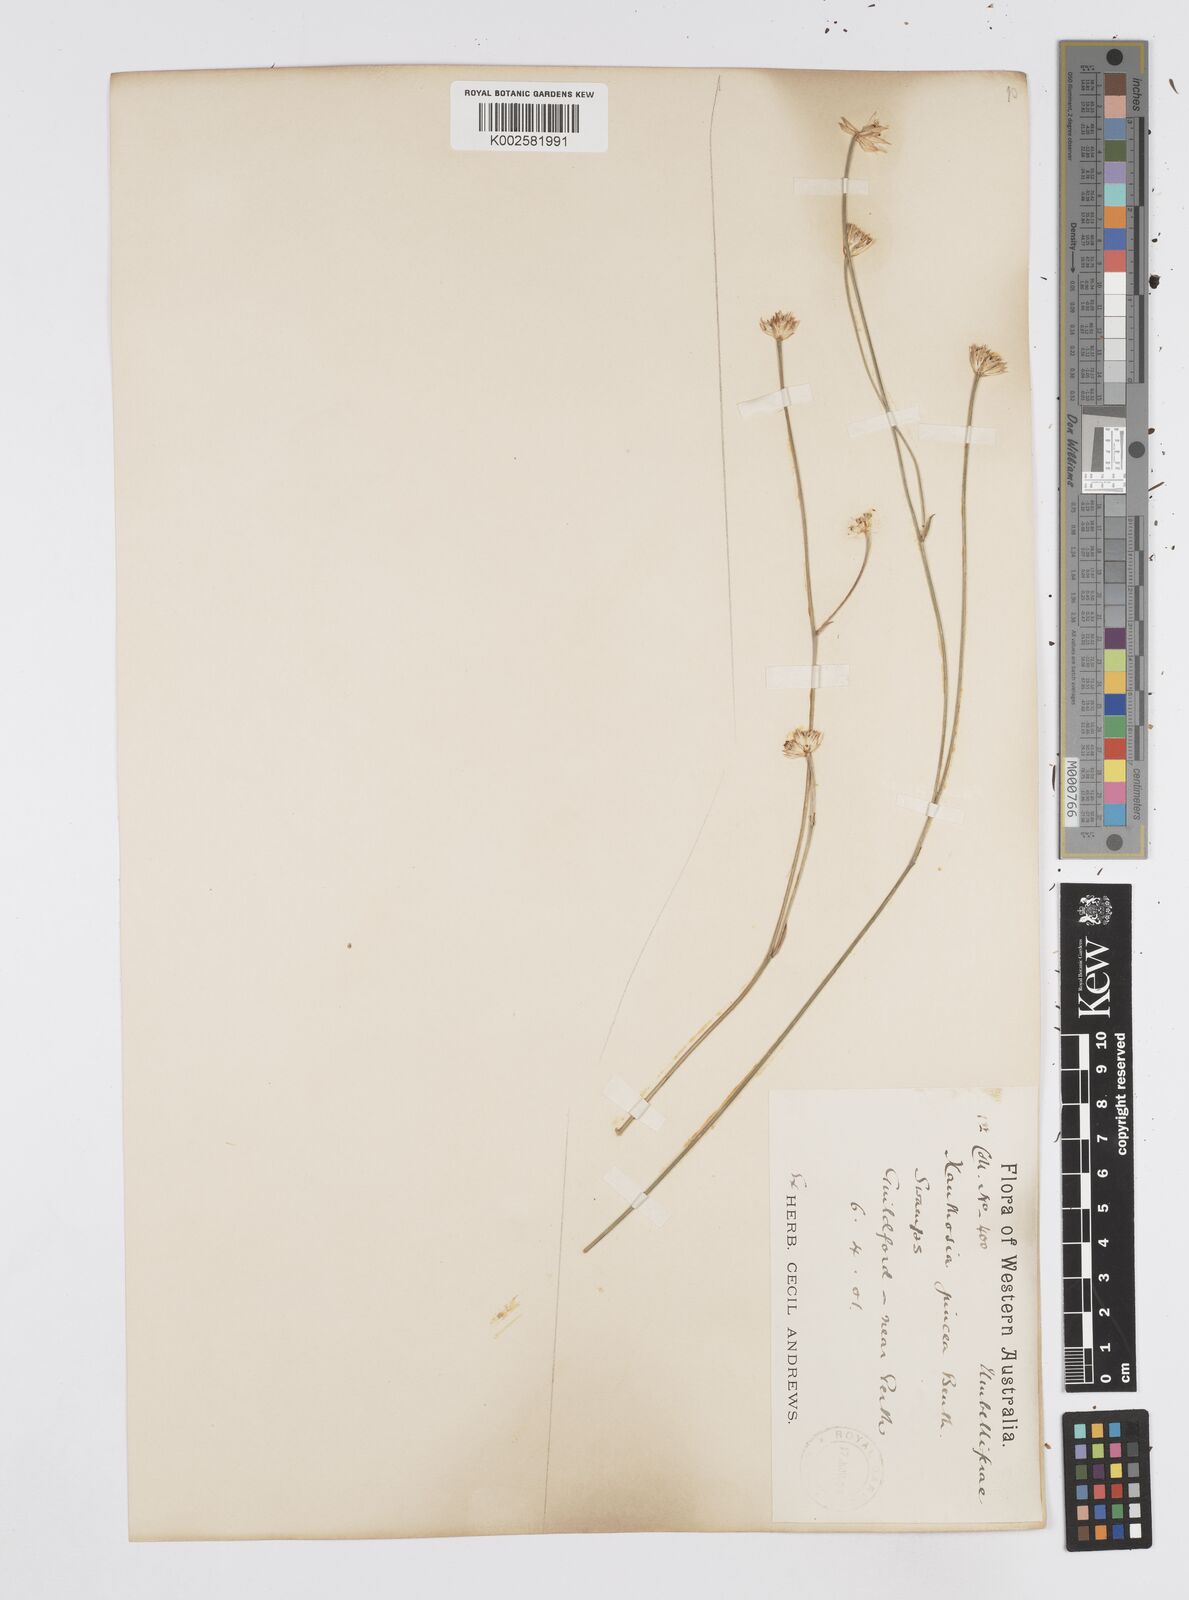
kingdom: Plantae
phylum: Tracheophyta
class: Magnoliopsida
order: Apiales
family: Apiaceae
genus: Schoenolaena
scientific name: Schoenolaena juncea
